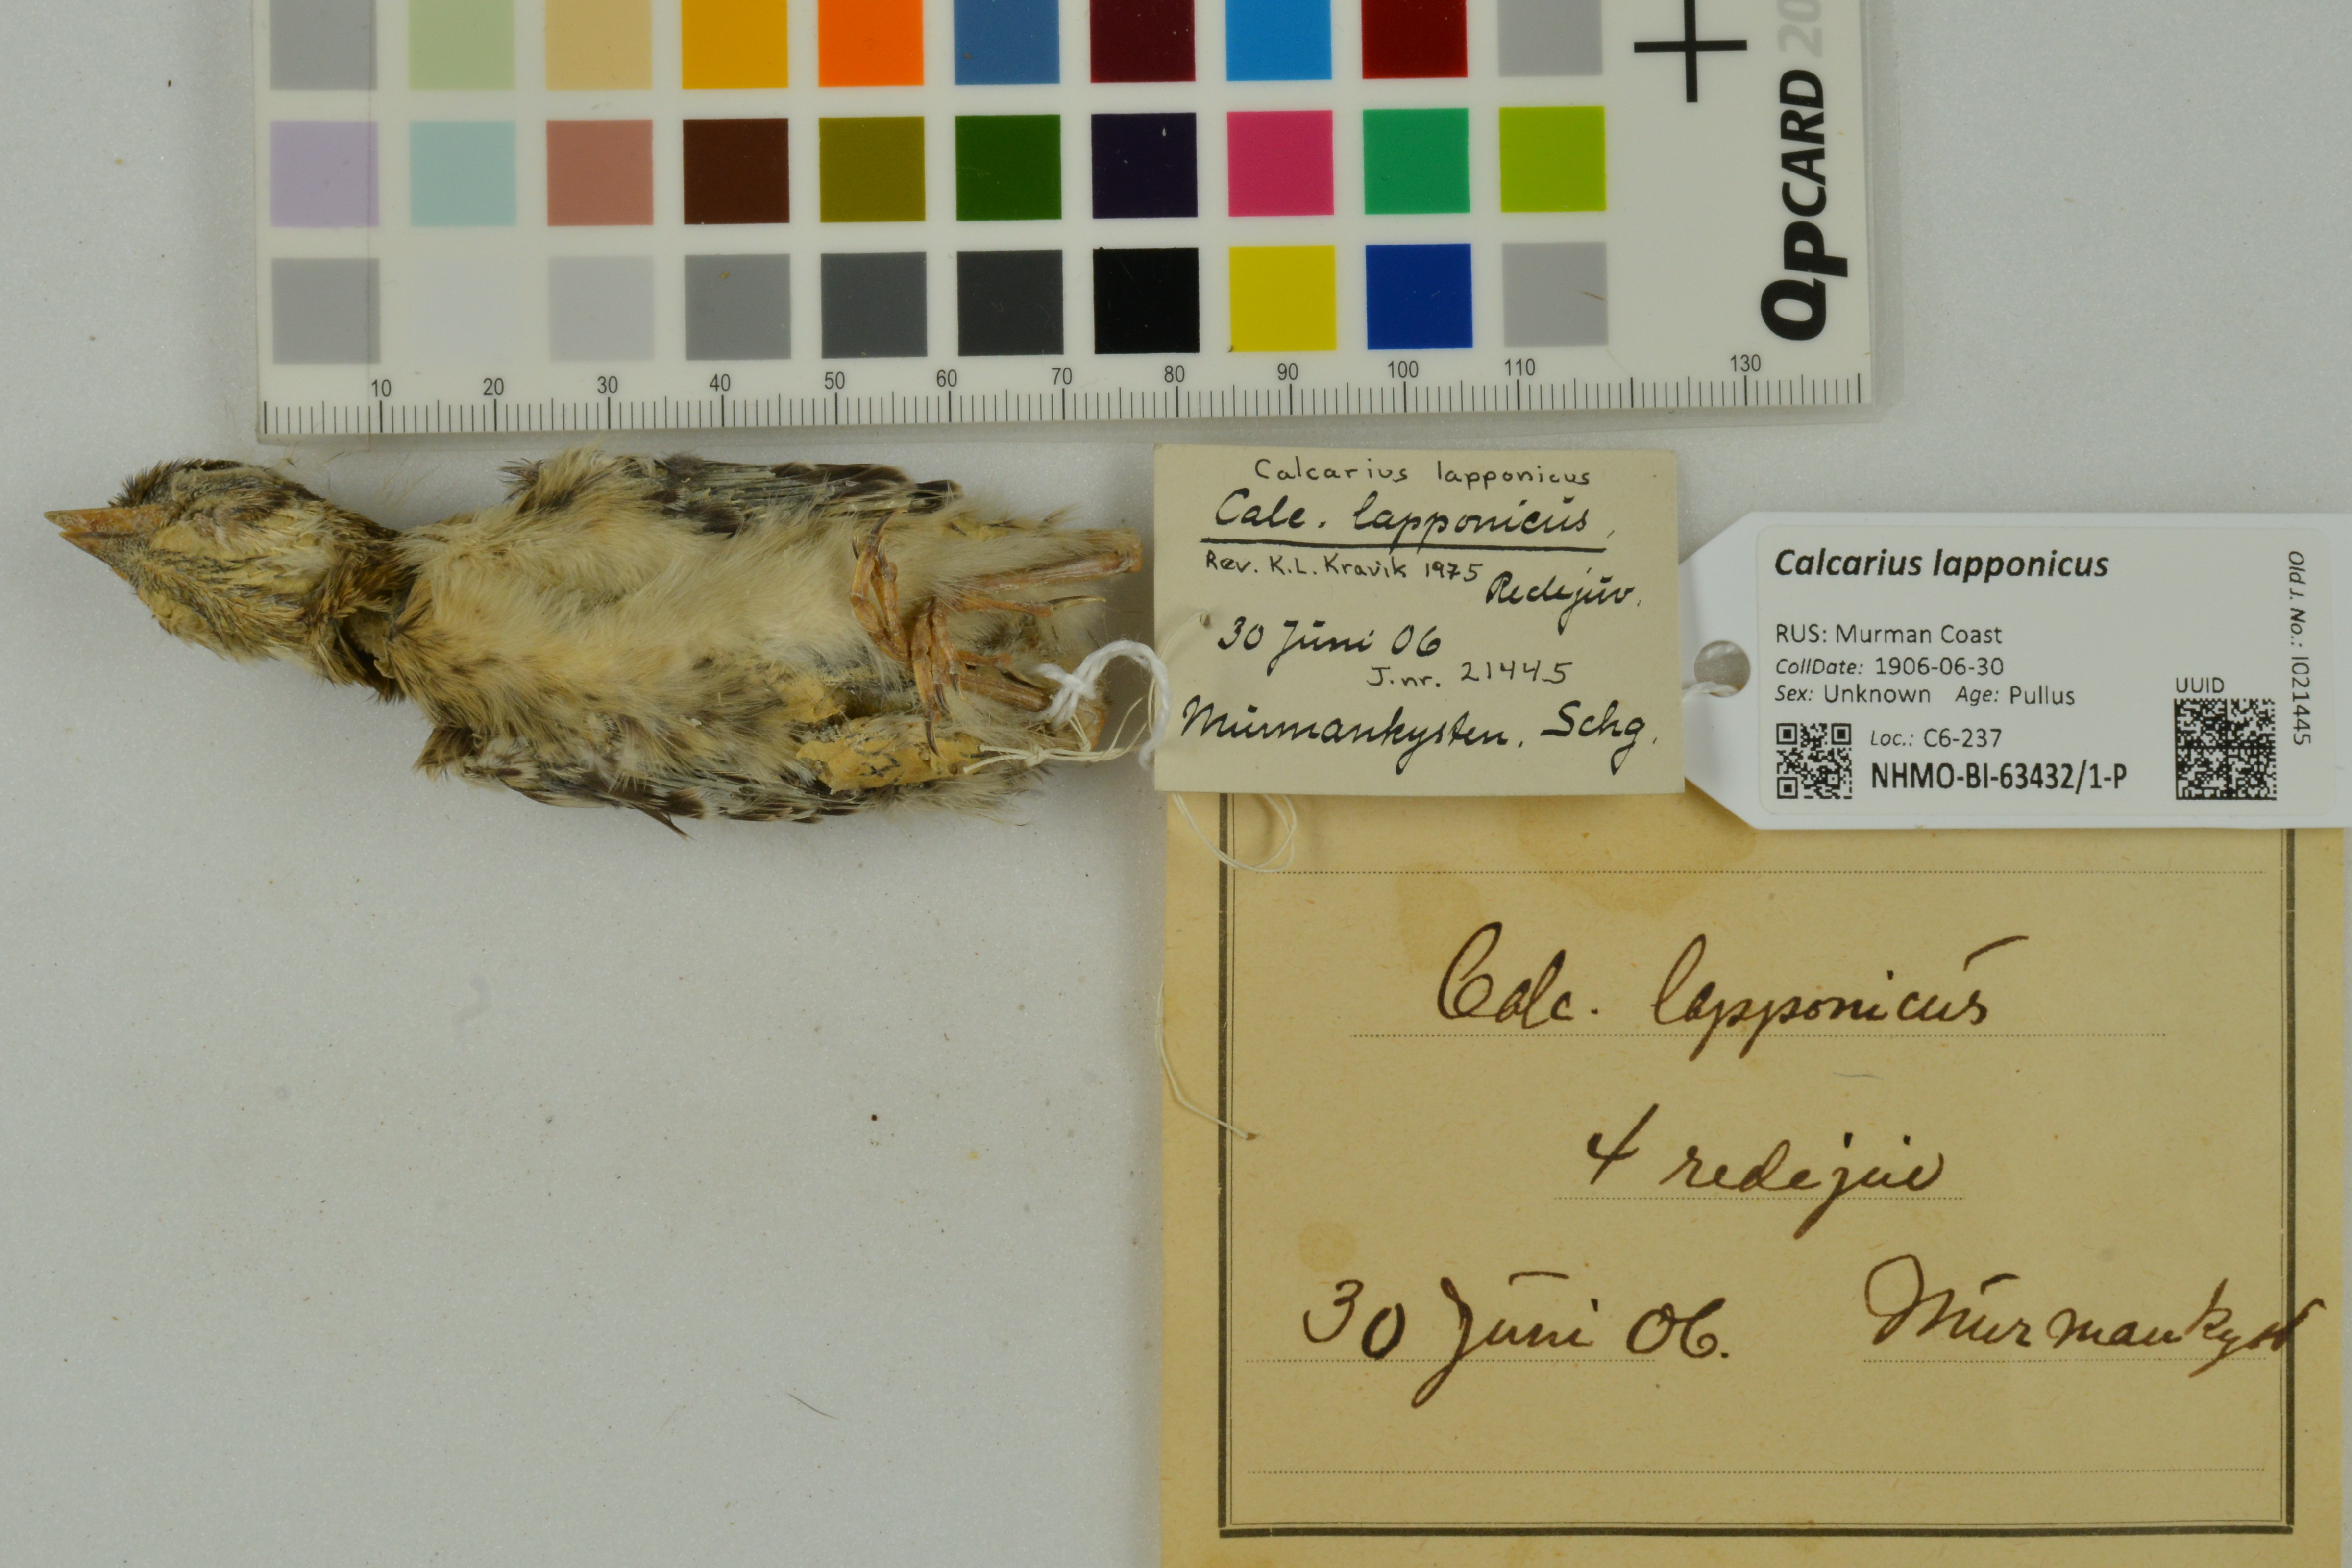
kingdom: Animalia
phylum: Chordata
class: Aves
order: Passeriformes
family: Calcariidae
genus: Calcarius
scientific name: Calcarius lapponicus
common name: Lapland longspur
